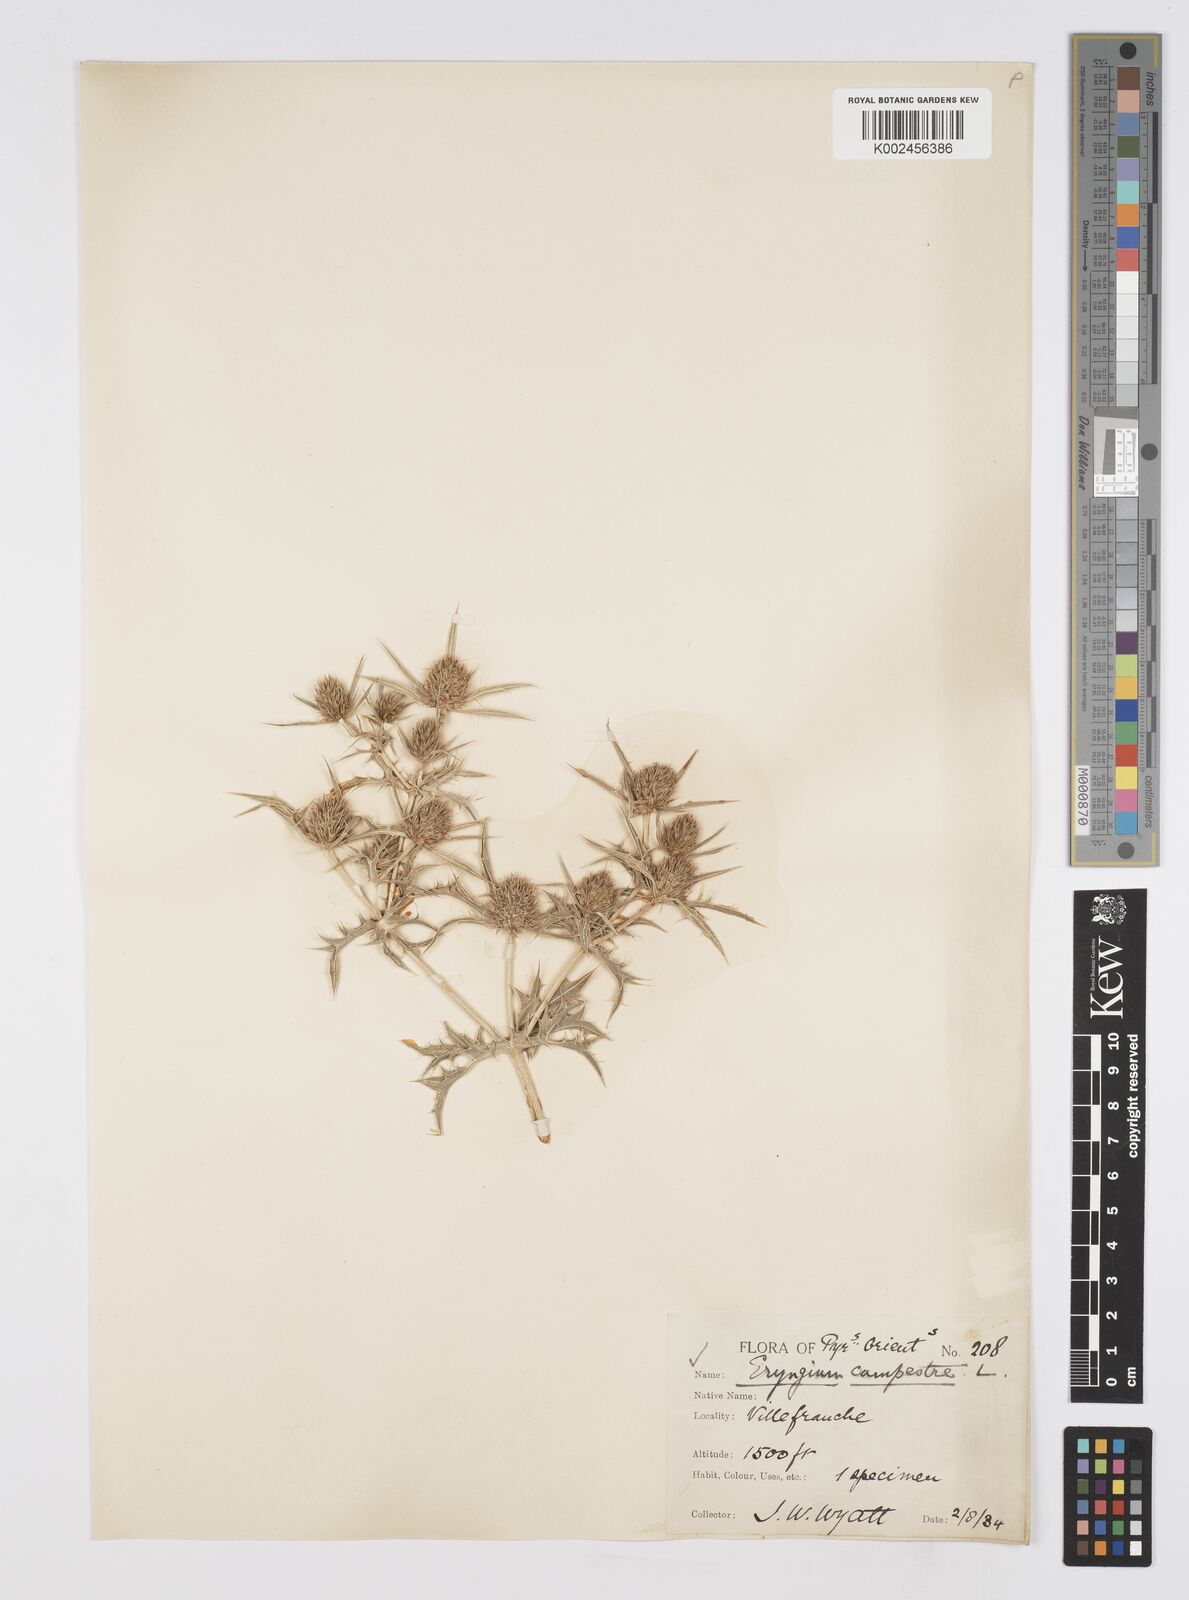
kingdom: Plantae
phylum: Tracheophyta
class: Magnoliopsida
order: Apiales
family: Apiaceae
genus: Eryngium
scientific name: Eryngium campestre
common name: Field eryngo
